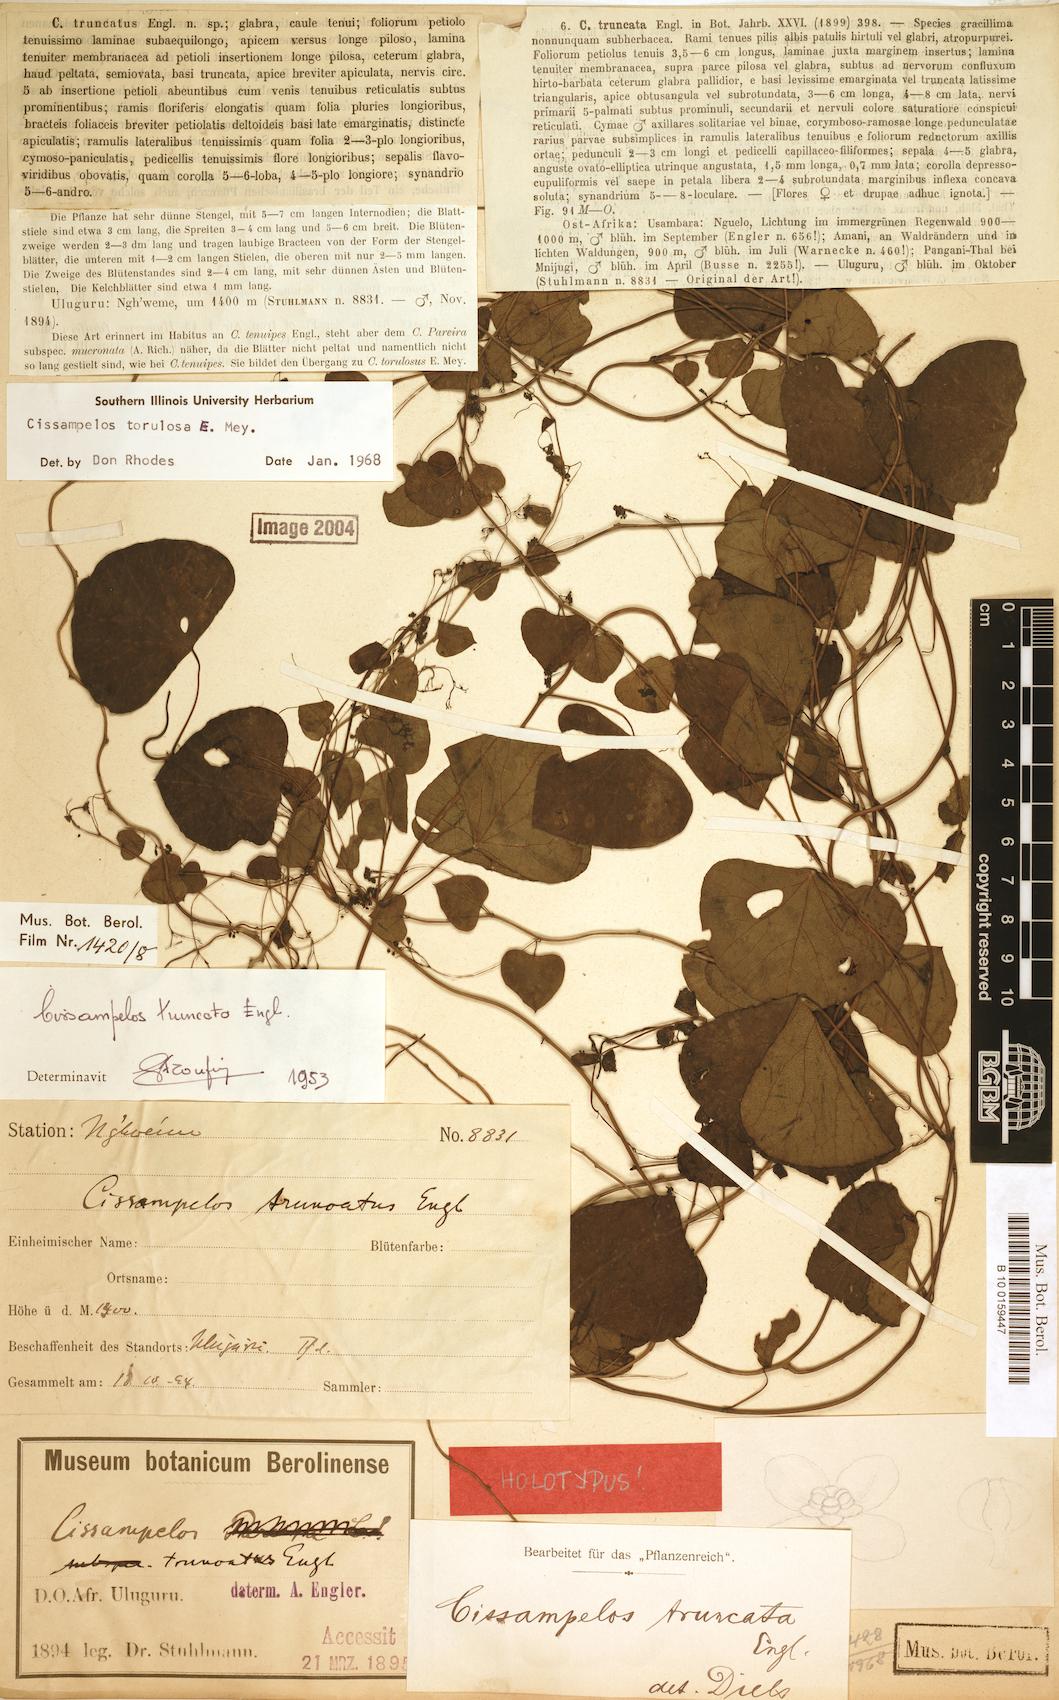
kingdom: Plantae
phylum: Tracheophyta
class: Magnoliopsida
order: Ranunculales
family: Menispermaceae
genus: Cissampelos
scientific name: Cissampelos torulosa
